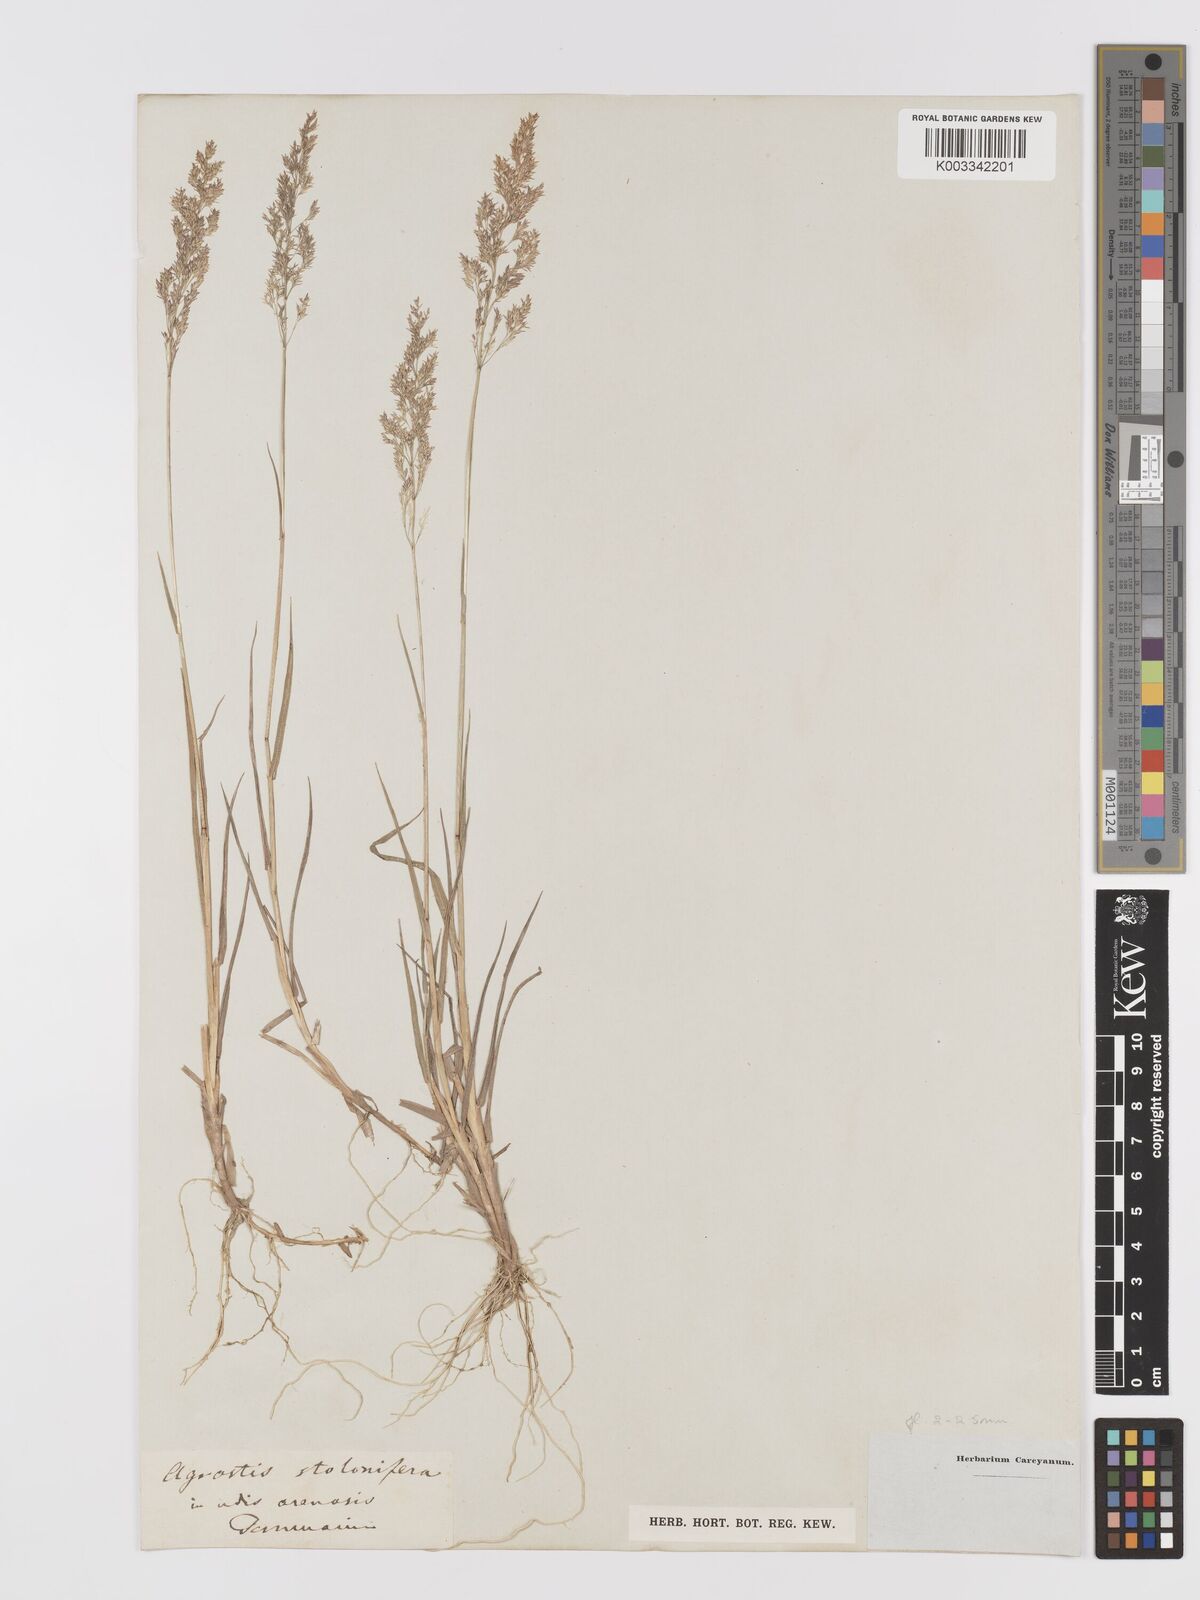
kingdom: Plantae
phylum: Tracheophyta
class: Liliopsida
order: Poales
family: Poaceae
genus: Agrostis
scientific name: Agrostis stolonifera
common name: Creeping bentgrass
